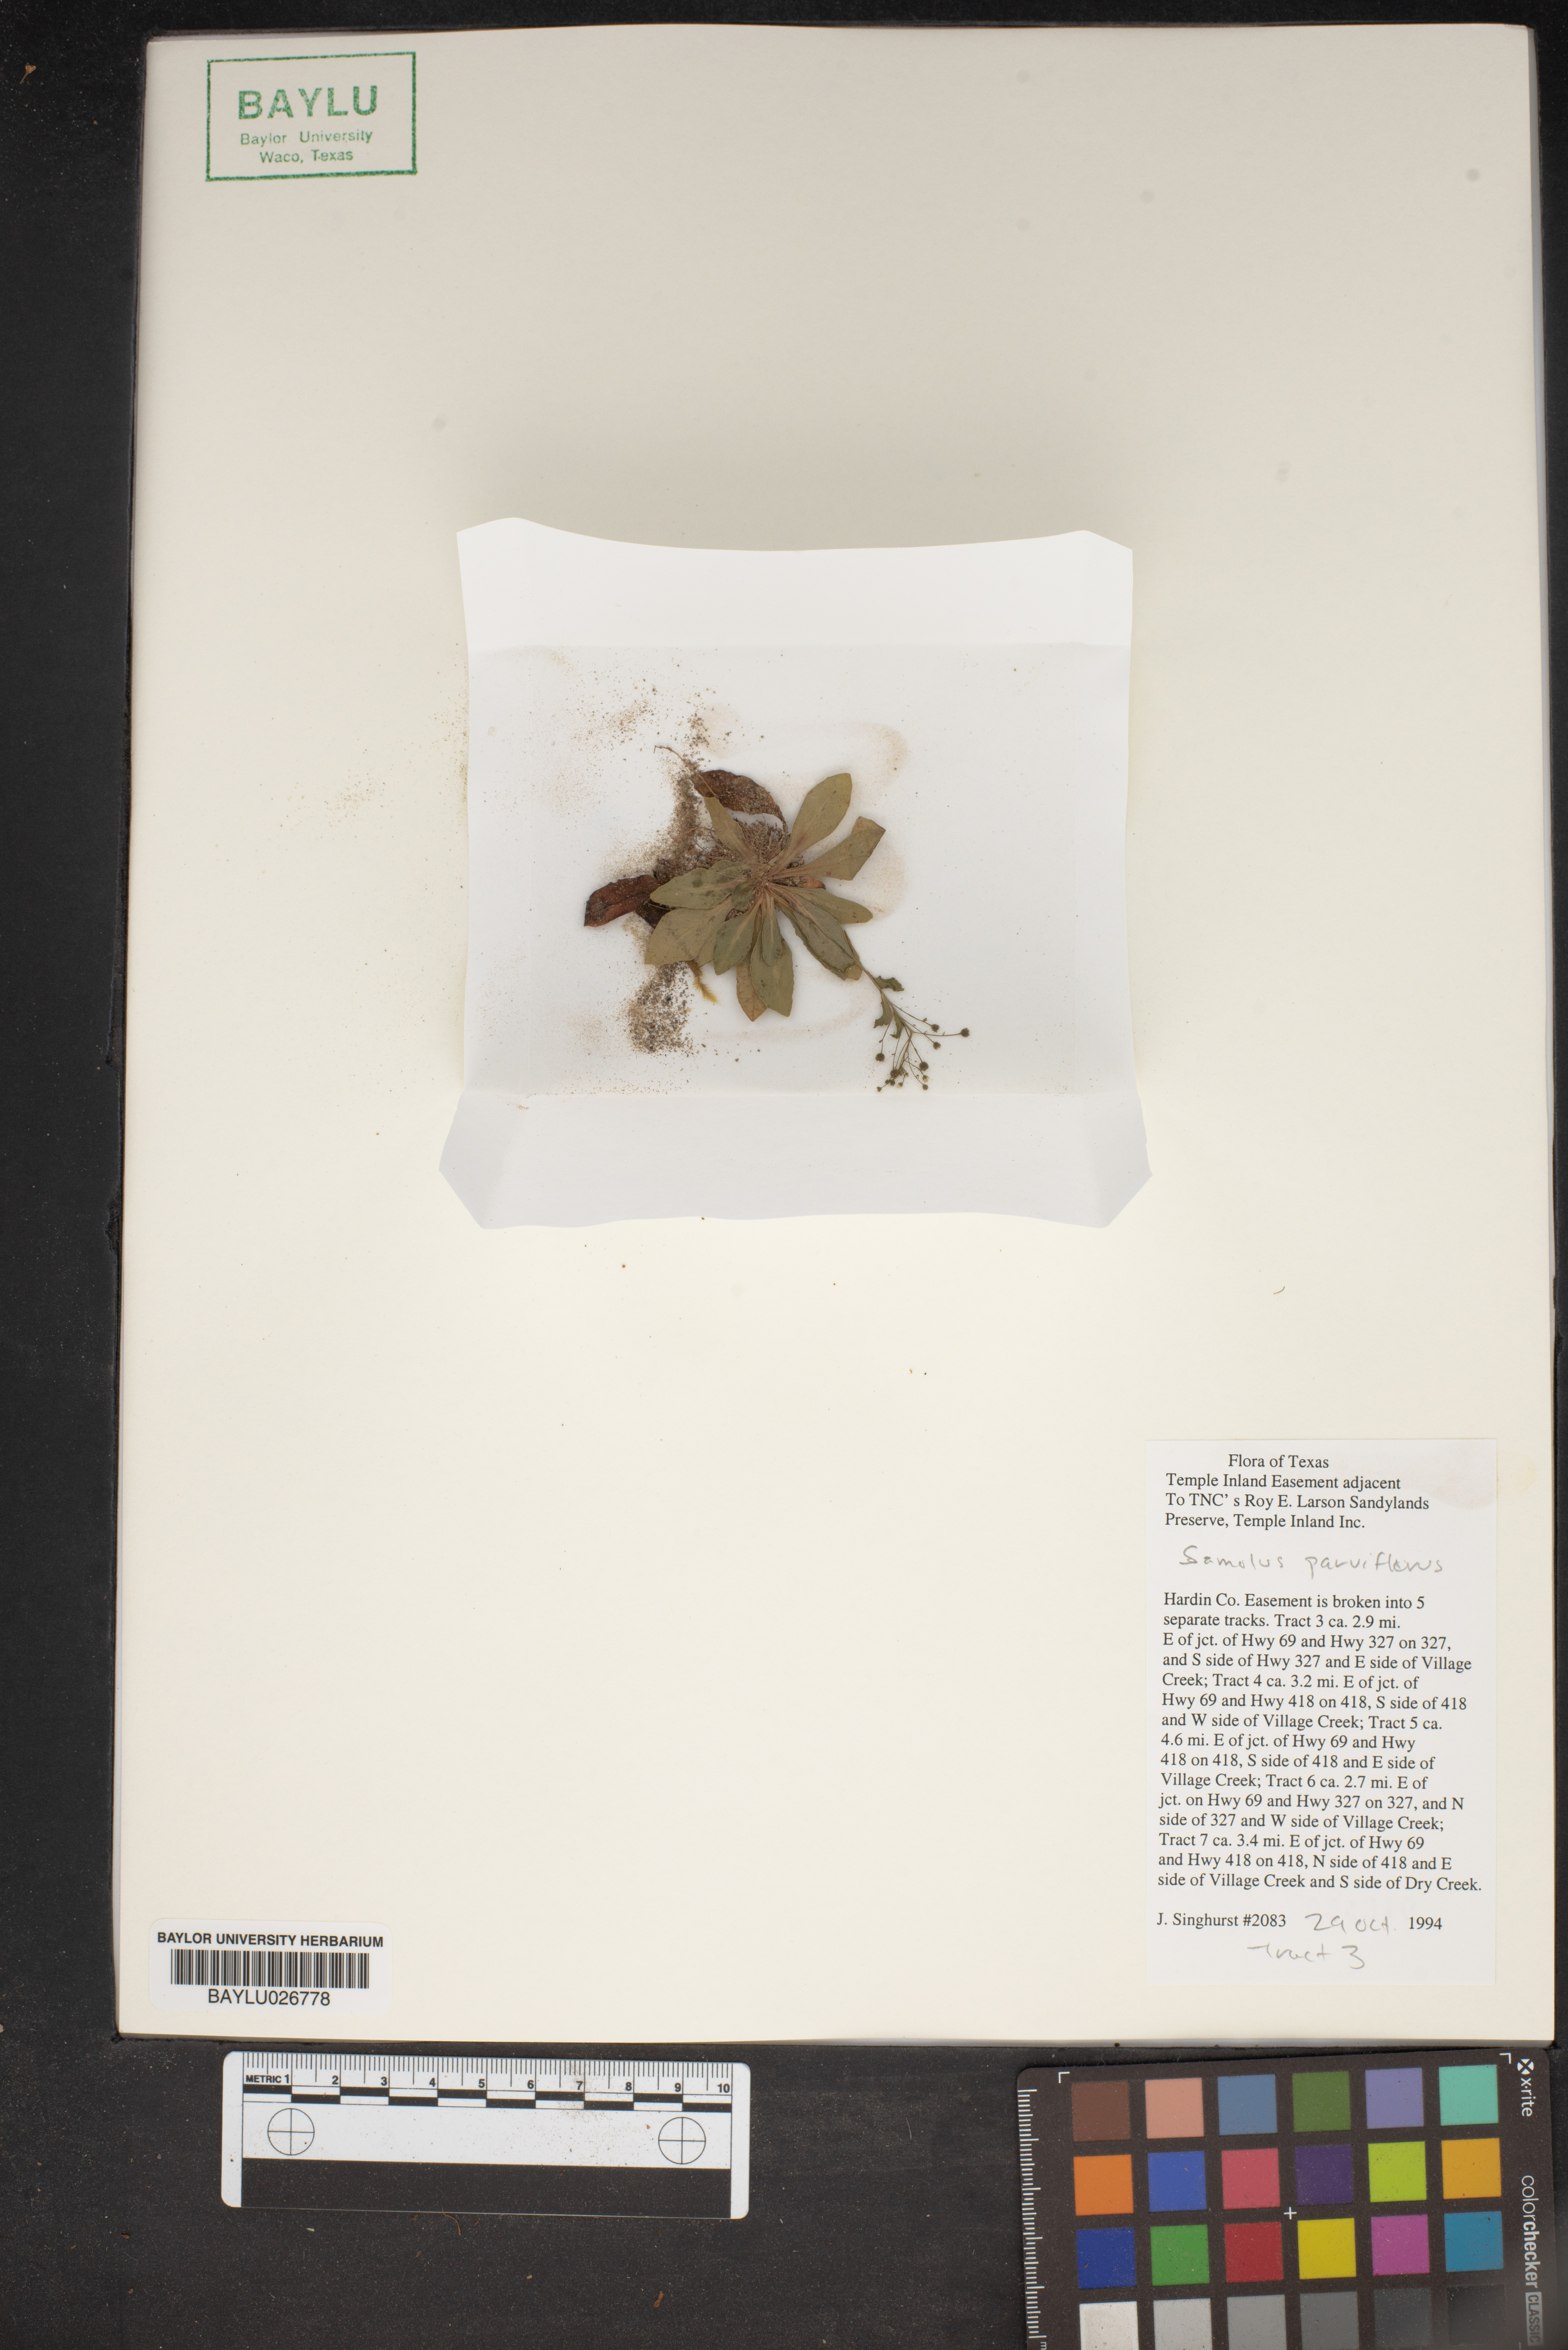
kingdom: Plantae
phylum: Tracheophyta
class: Magnoliopsida
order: Ericales
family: Primulaceae
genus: Samolus
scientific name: Samolus parviflorus
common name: False water pimpernel
